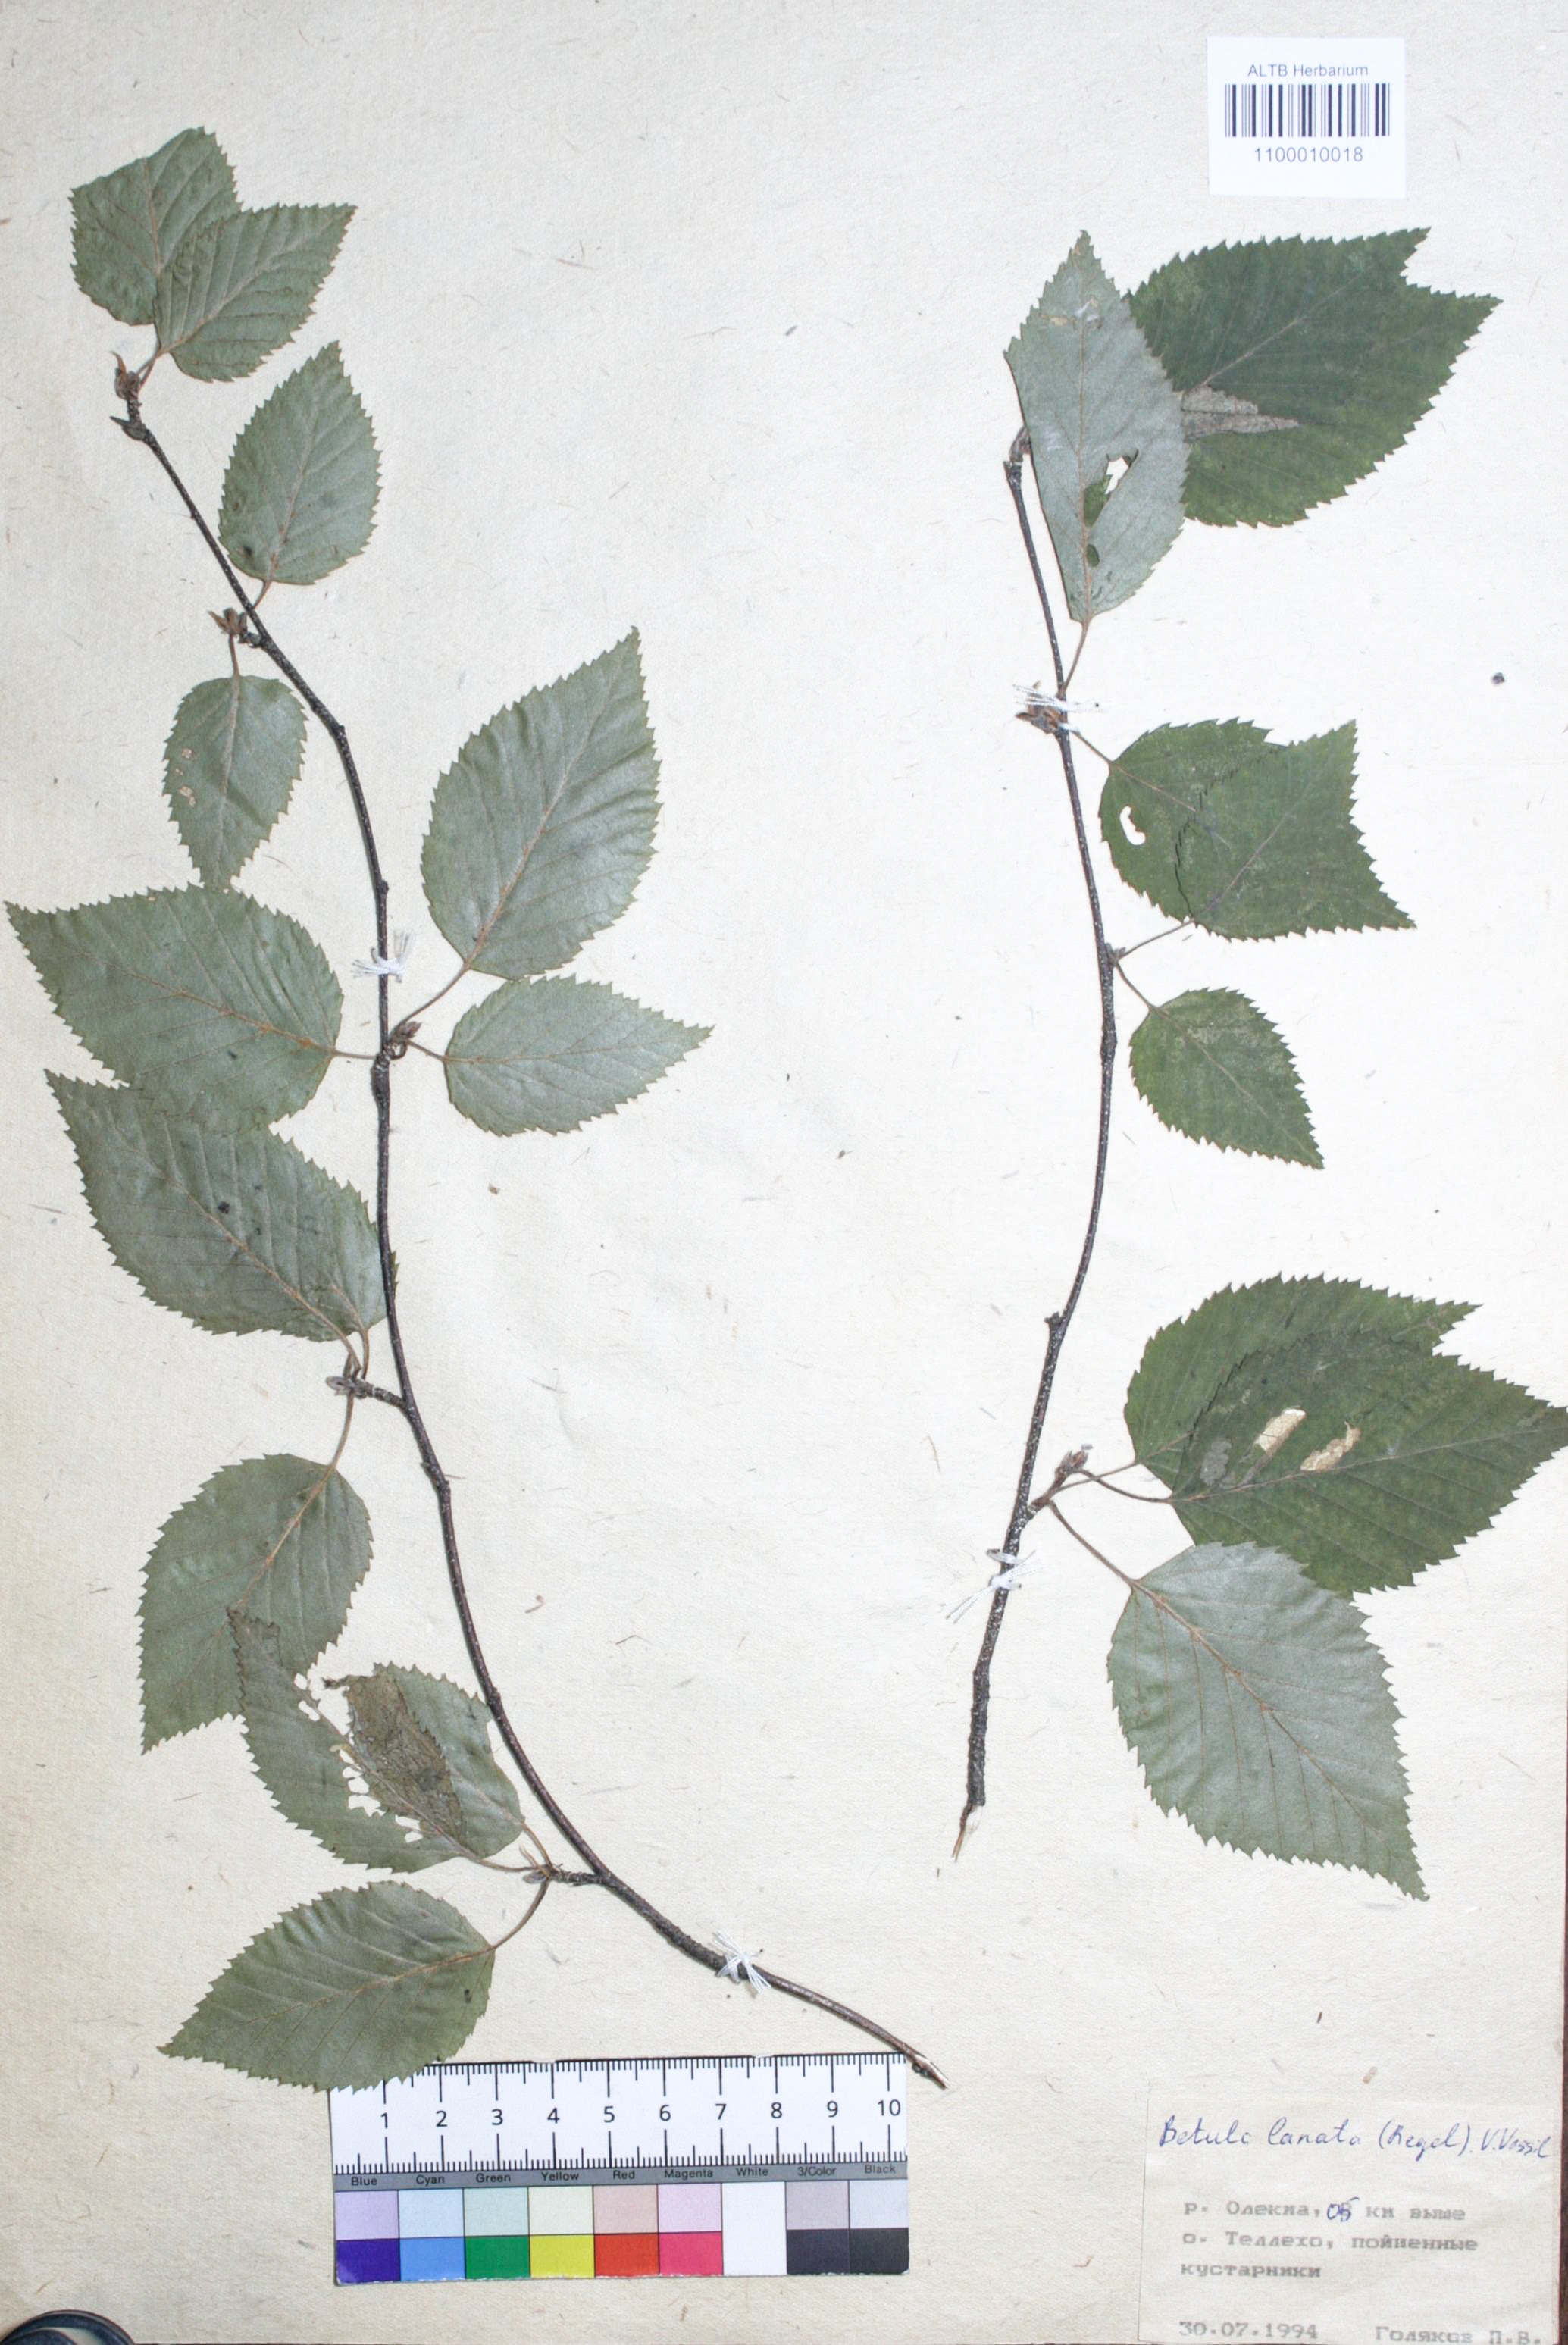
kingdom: Plantae
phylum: Tracheophyta
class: Magnoliopsida
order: Fagales
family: Betulaceae
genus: Betula
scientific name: Betula ermanii
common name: Erman's birch
